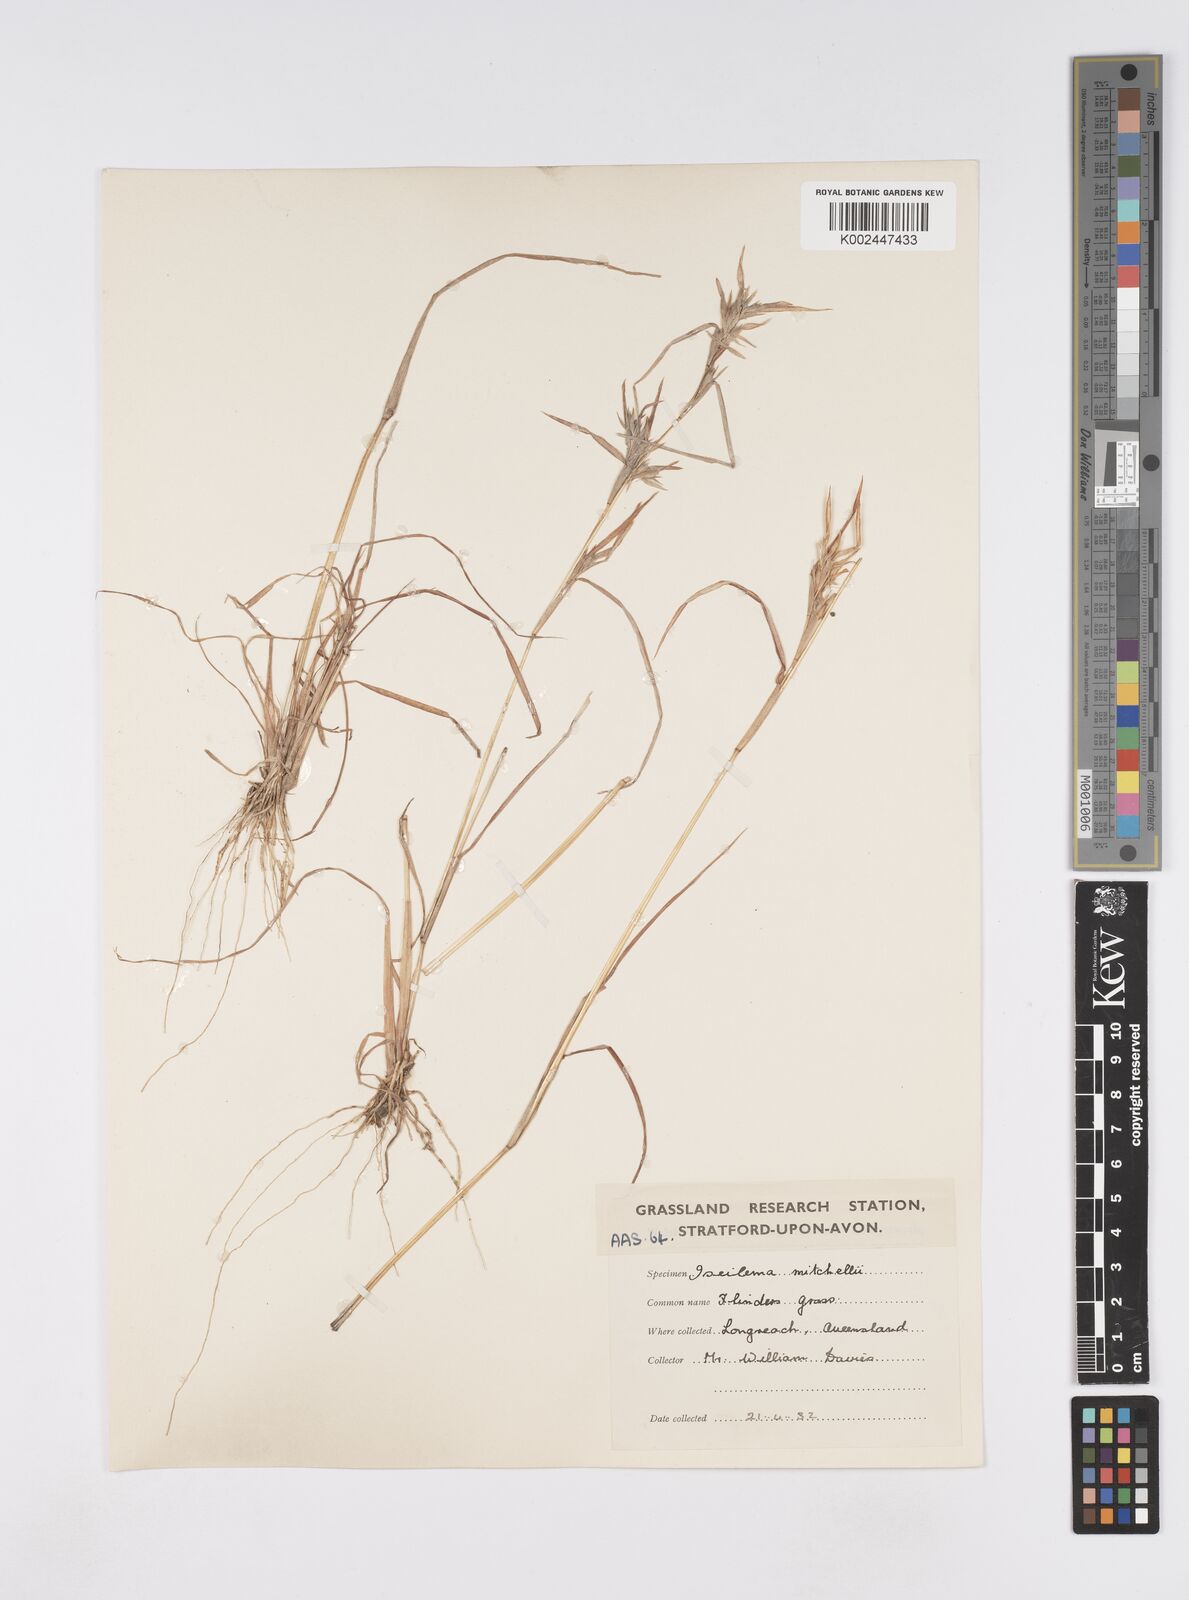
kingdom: Plantae
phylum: Tracheophyta
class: Liliopsida
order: Poales
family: Poaceae
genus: Iseilema
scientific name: Iseilema
